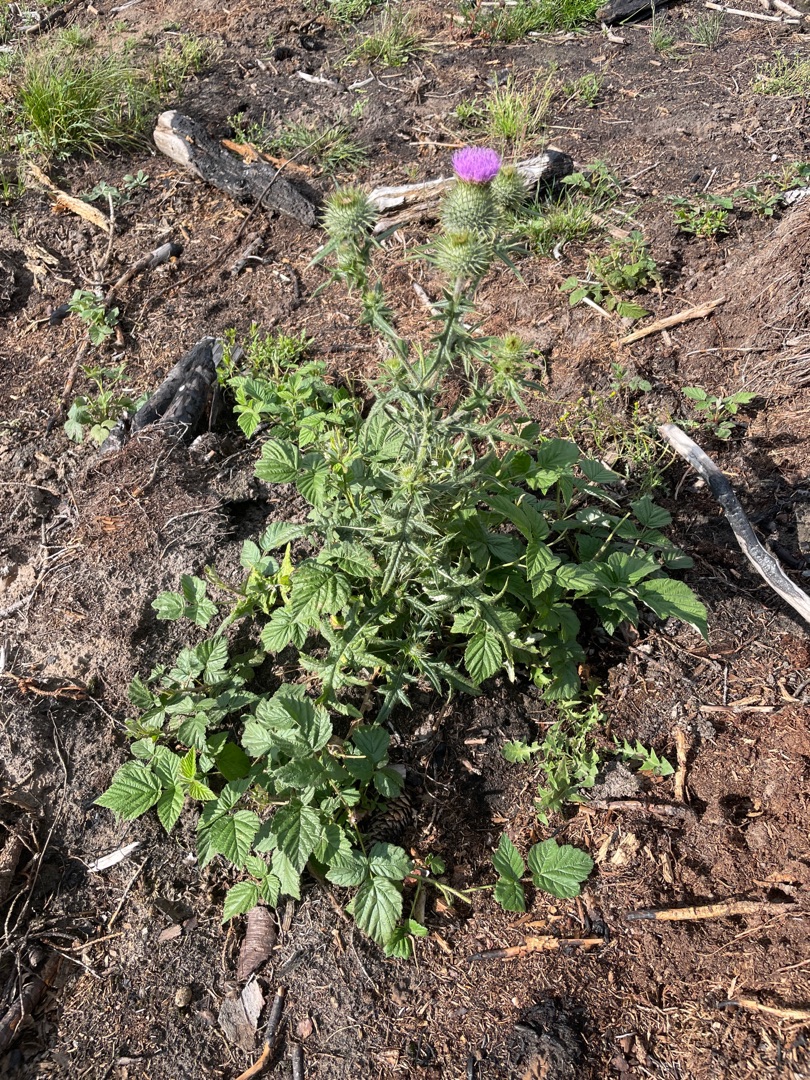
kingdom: Plantae
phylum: Tracheophyta
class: Magnoliopsida
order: Asterales
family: Asteraceae
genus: Cirsium
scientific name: Cirsium vulgare
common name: Horse-tidsel
